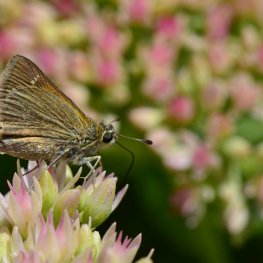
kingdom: Animalia
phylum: Arthropoda
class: Insecta
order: Lepidoptera
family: Hesperiidae
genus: Polites
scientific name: Polites themistocles
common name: Tawny-edged Skipper
